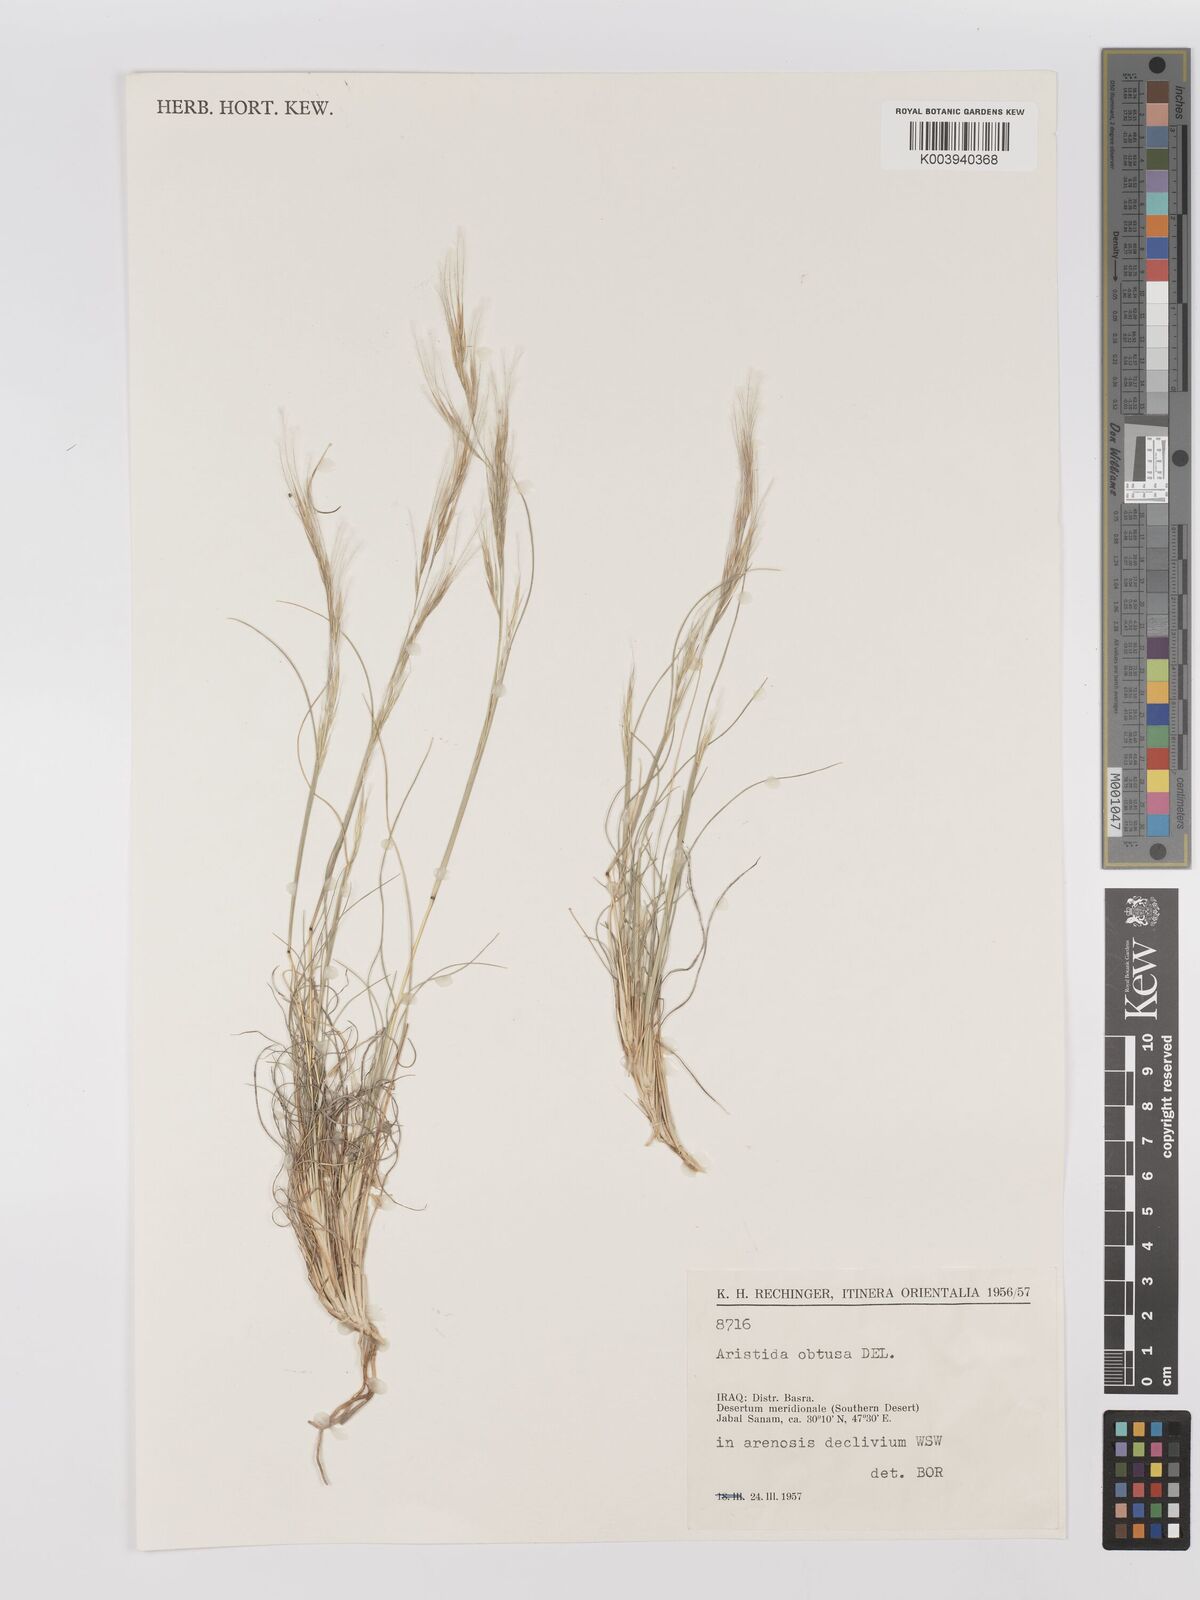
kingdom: Plantae
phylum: Tracheophyta
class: Liliopsida
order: Poales
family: Poaceae
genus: Stipagrostis
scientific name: Stipagrostis obtusa
